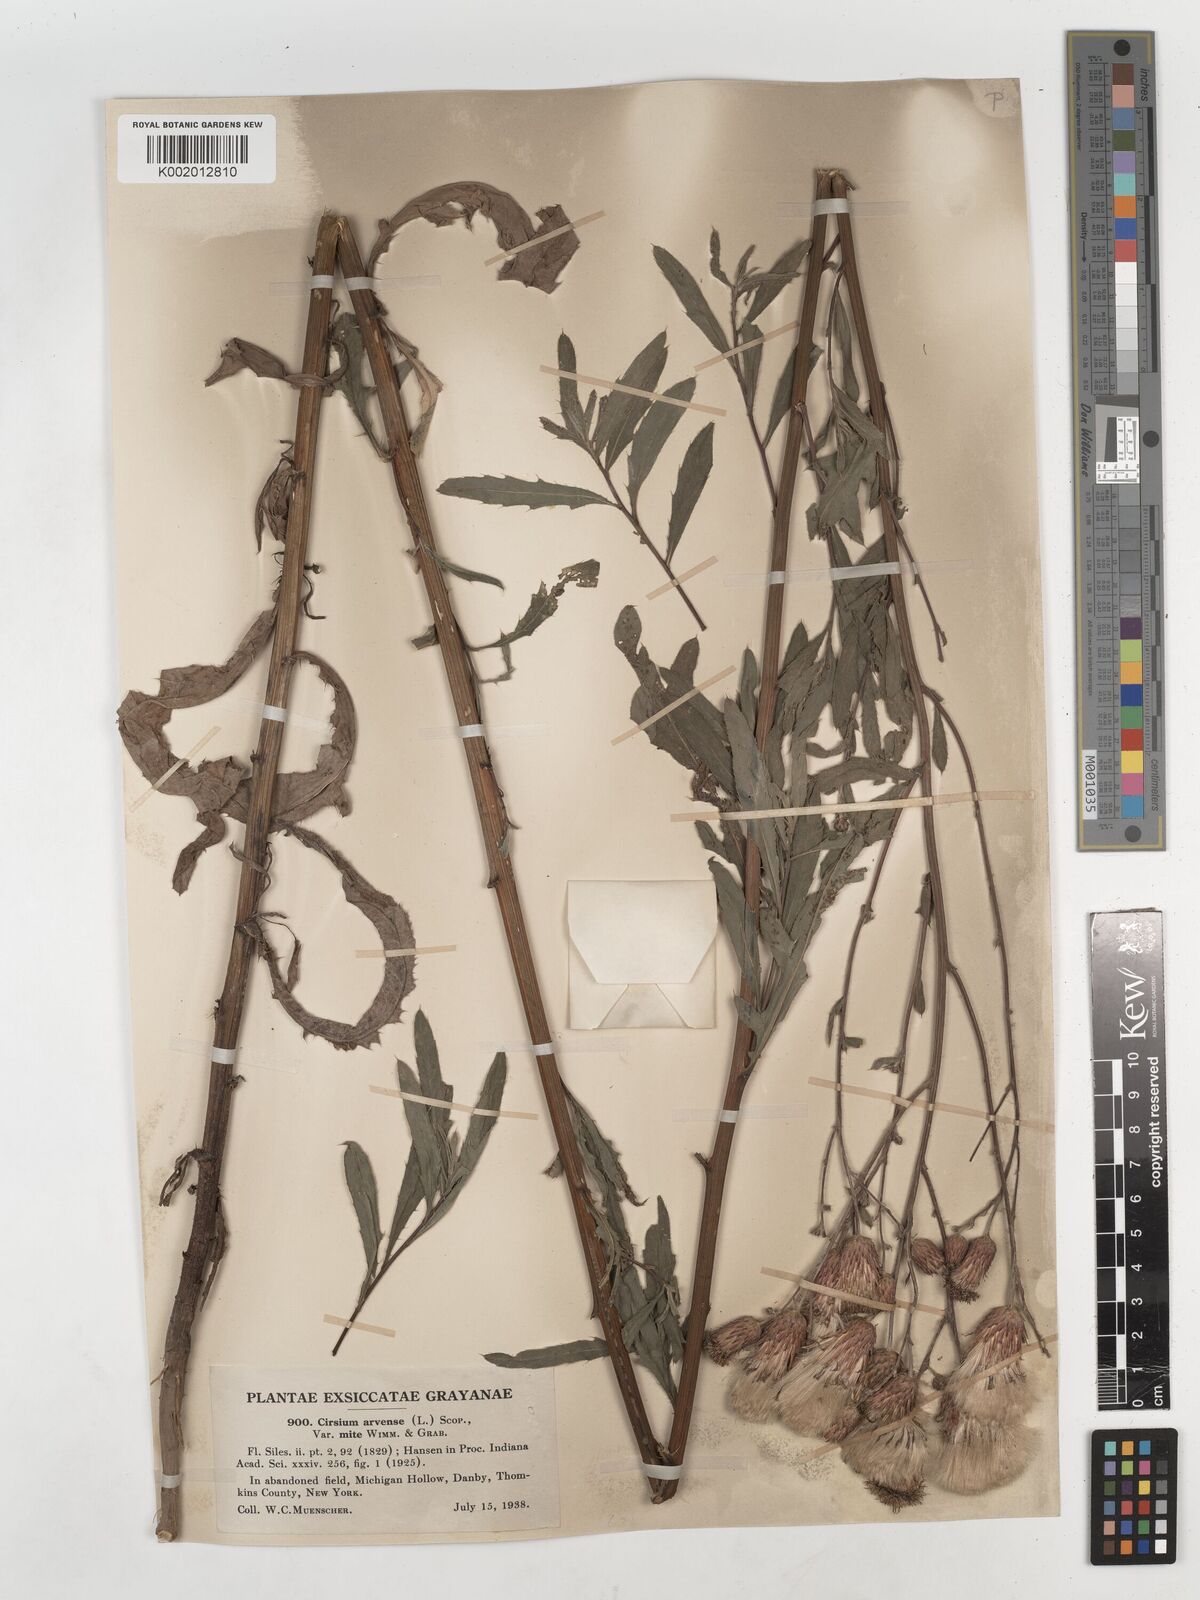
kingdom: Plantae
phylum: Tracheophyta
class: Magnoliopsida
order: Asterales
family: Asteraceae
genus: Cirsium
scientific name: Cirsium arvense
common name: Creeping thistle
